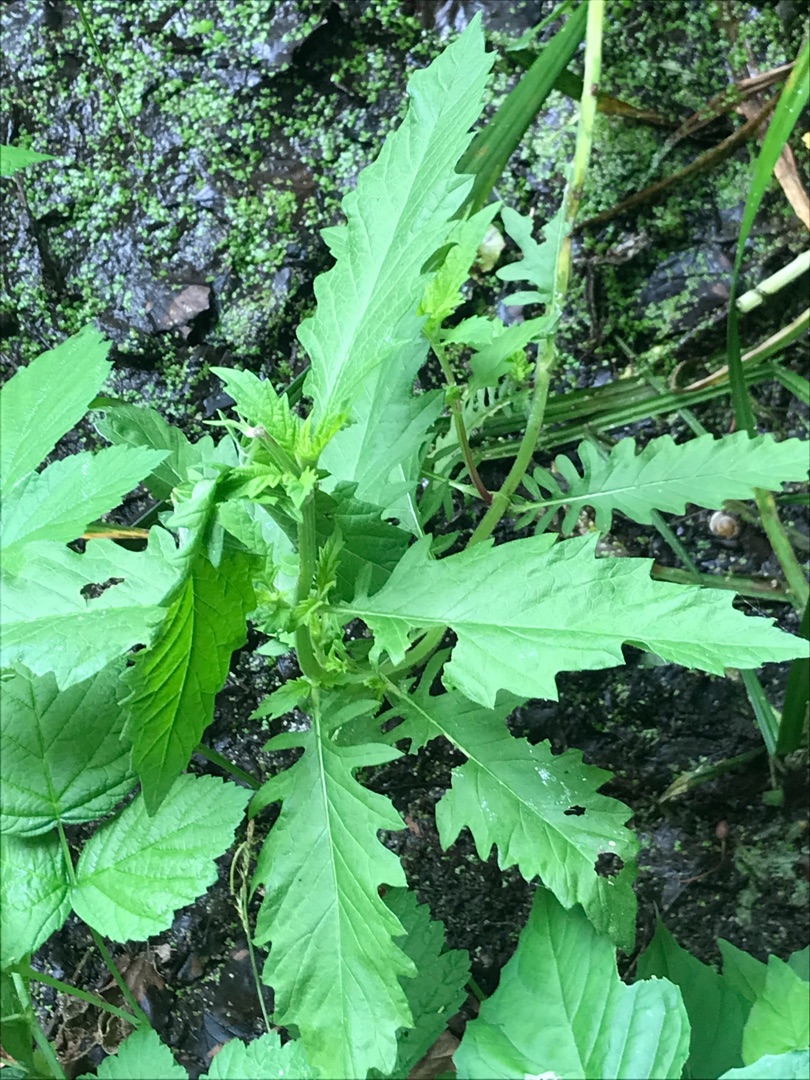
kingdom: Plantae
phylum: Tracheophyta
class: Magnoliopsida
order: Lamiales
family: Lamiaceae
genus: Lycopus
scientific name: Lycopus europaeus
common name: Sværtevæld
